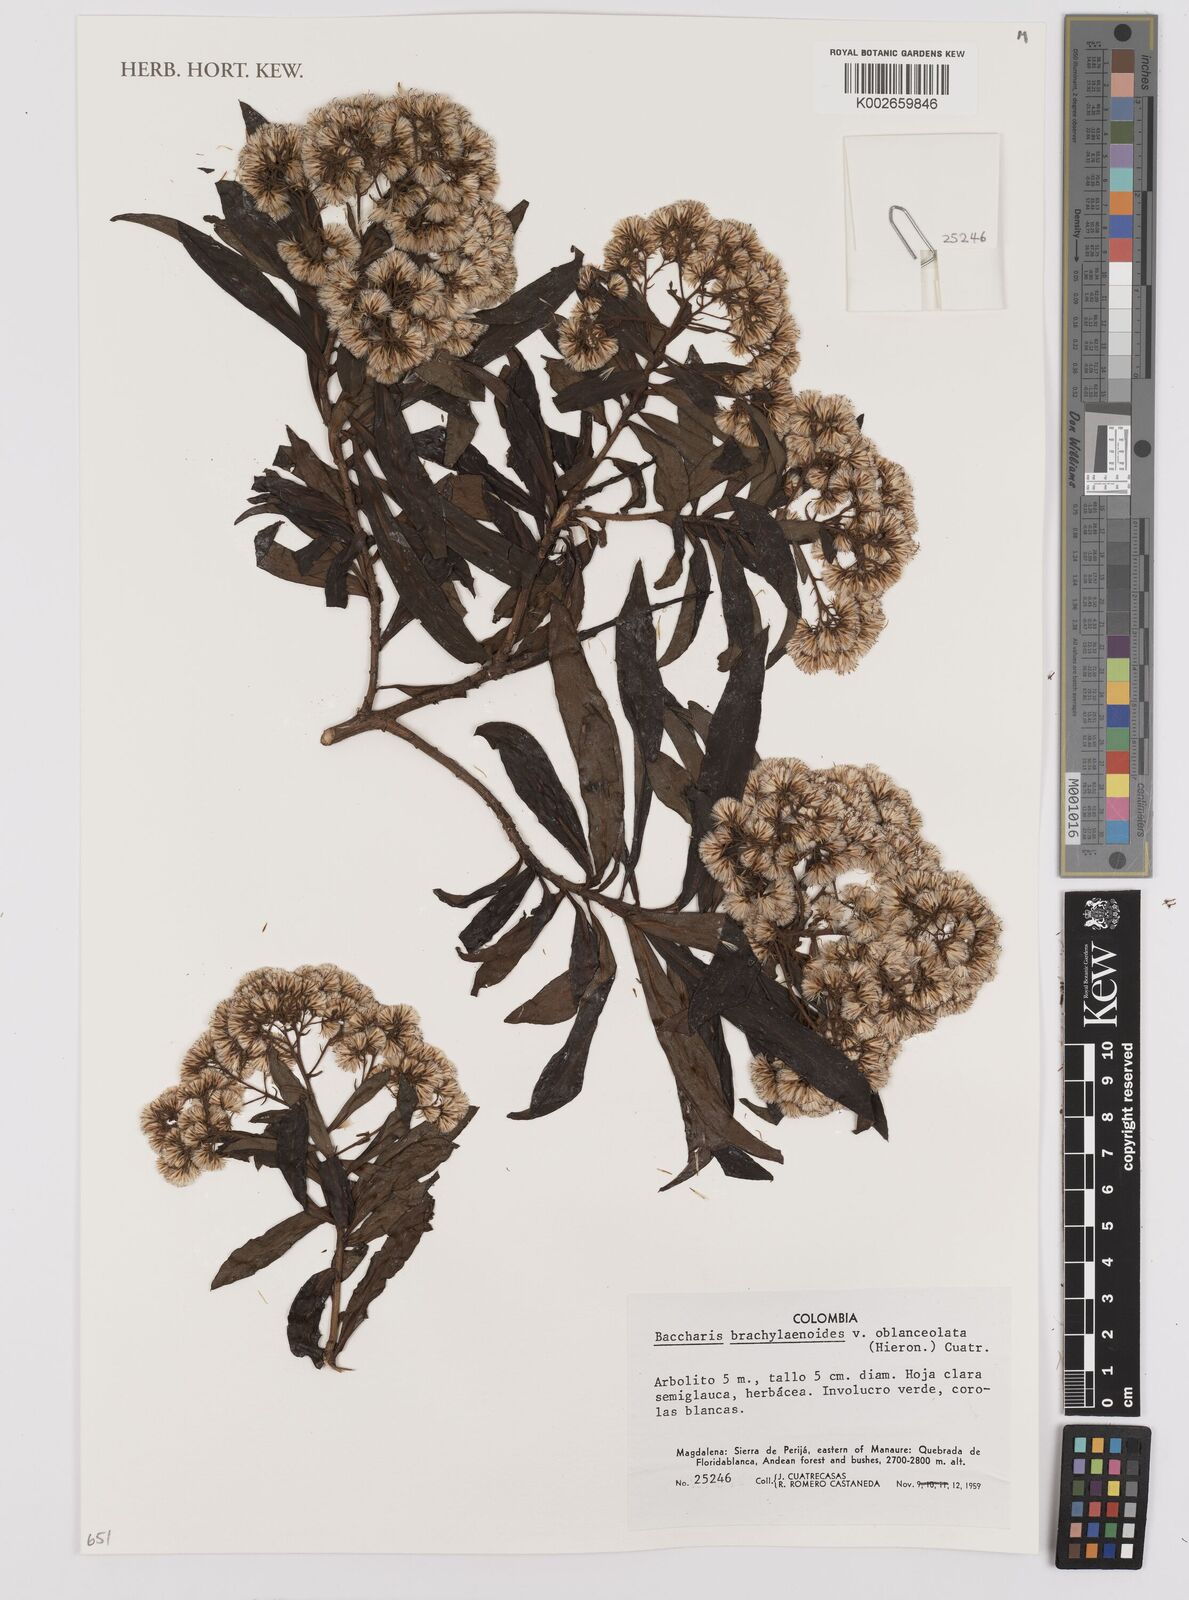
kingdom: Plantae
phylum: Tracheophyta
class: Magnoliopsida
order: Asterales
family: Asteraceae
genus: Baccharis
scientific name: Baccharis oblongifolia
